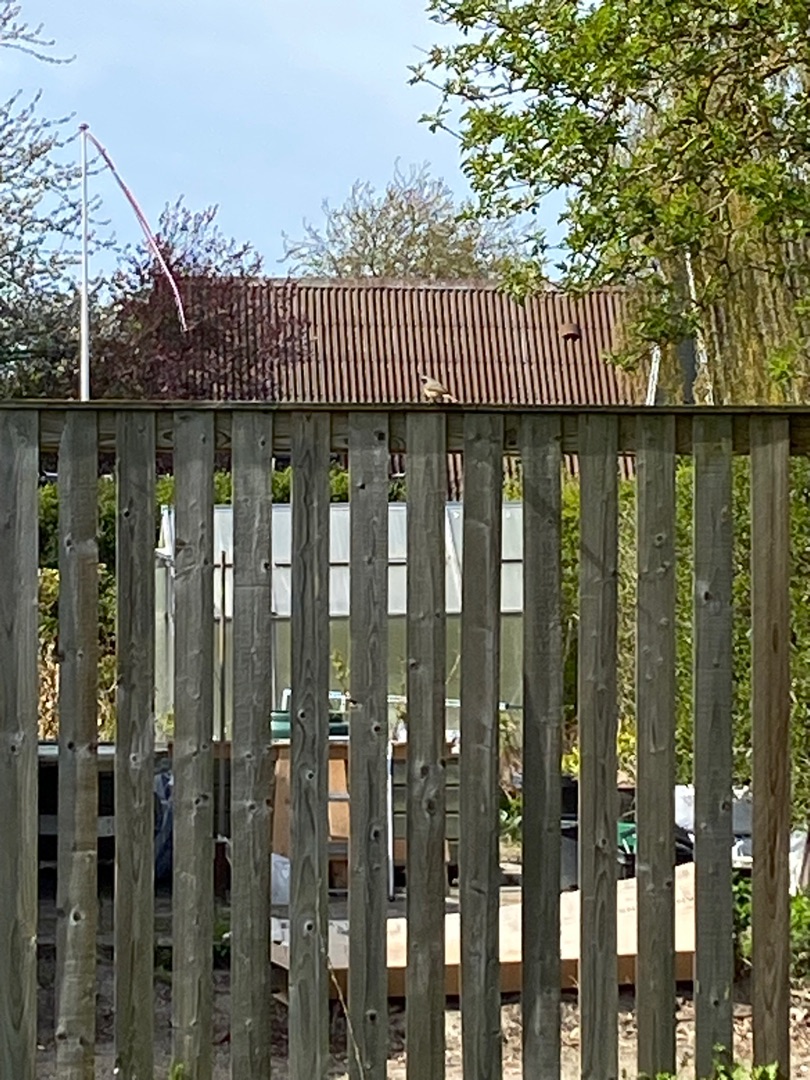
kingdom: Animalia
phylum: Chordata
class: Aves
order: Passeriformes
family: Muscicapidae
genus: Phoenicurus
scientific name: Phoenicurus phoenicurus
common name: Rødstjert
